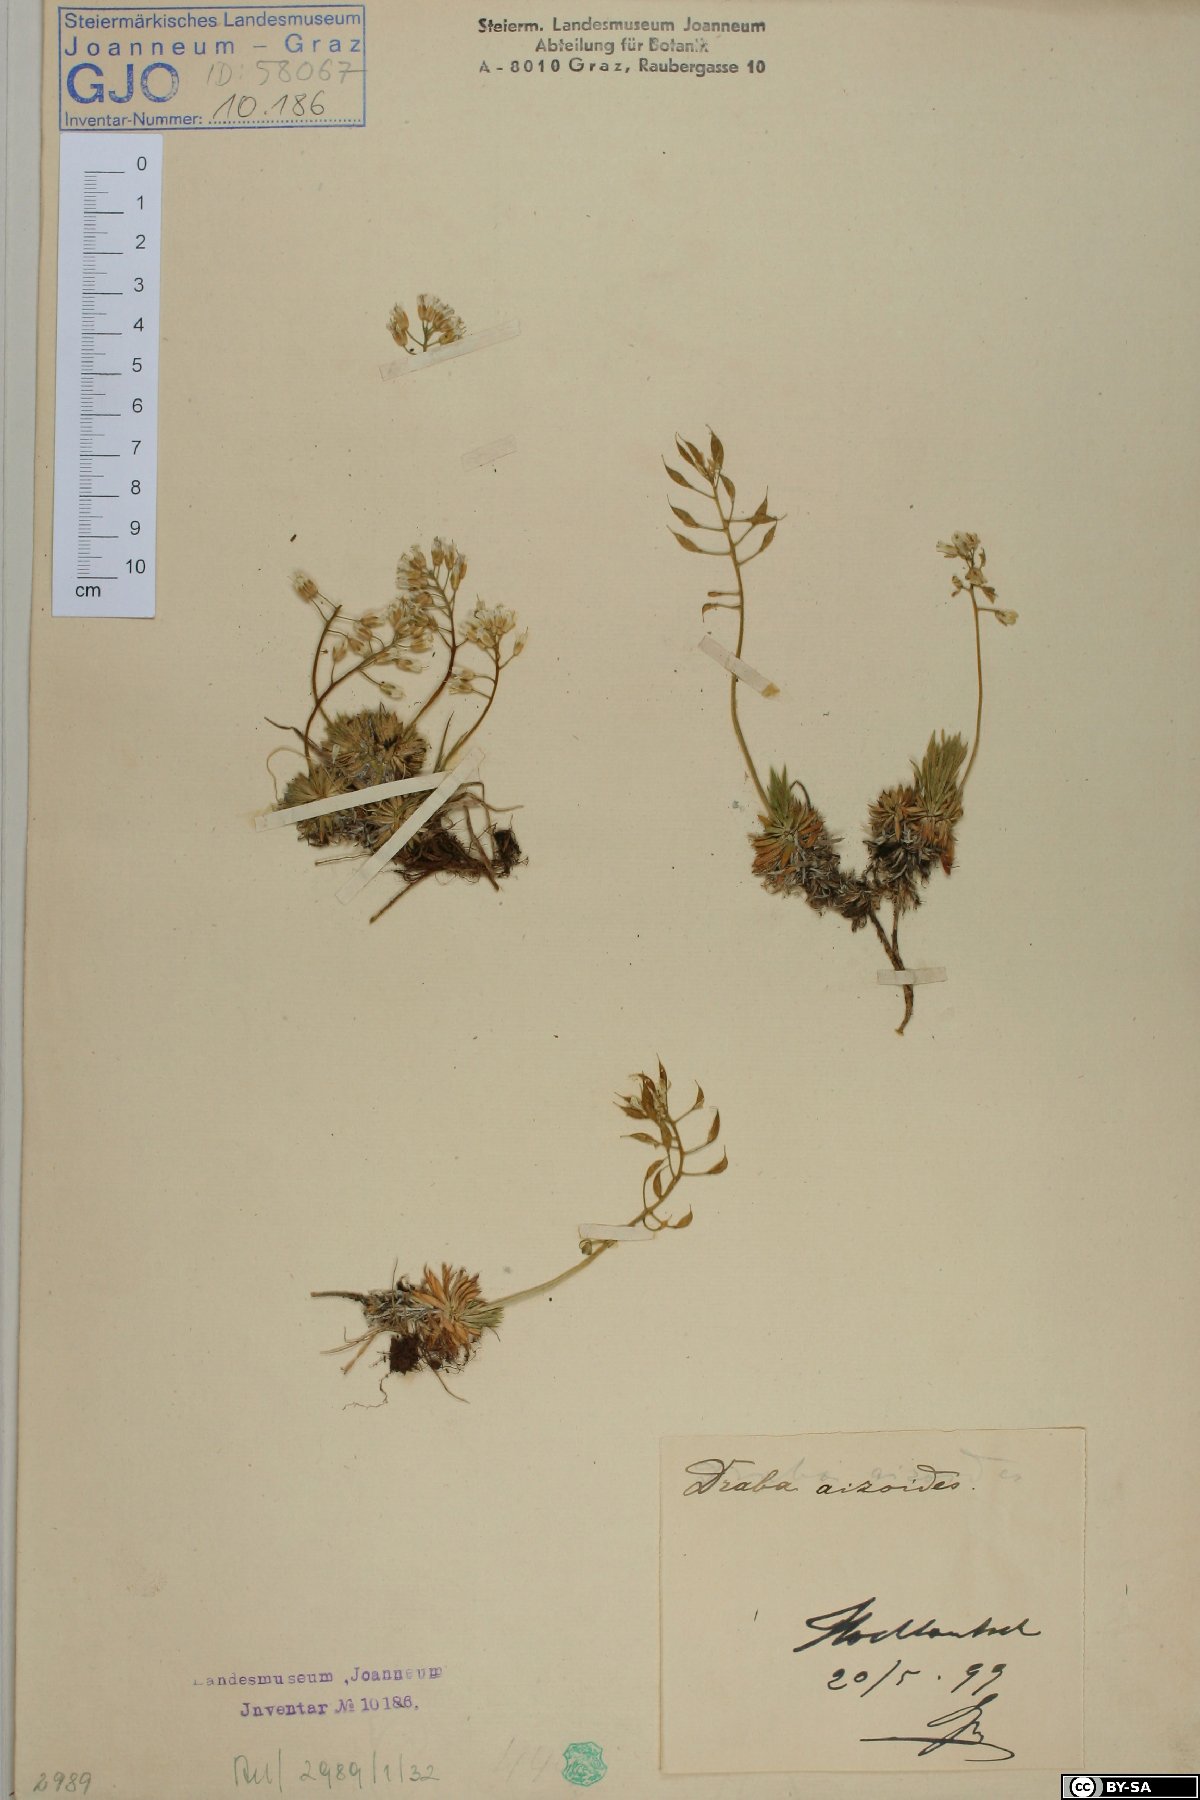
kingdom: Plantae
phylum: Tracheophyta
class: Magnoliopsida
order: Brassicales
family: Brassicaceae
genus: Draba
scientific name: Draba aizoides
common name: Yellow whitlowgrass
